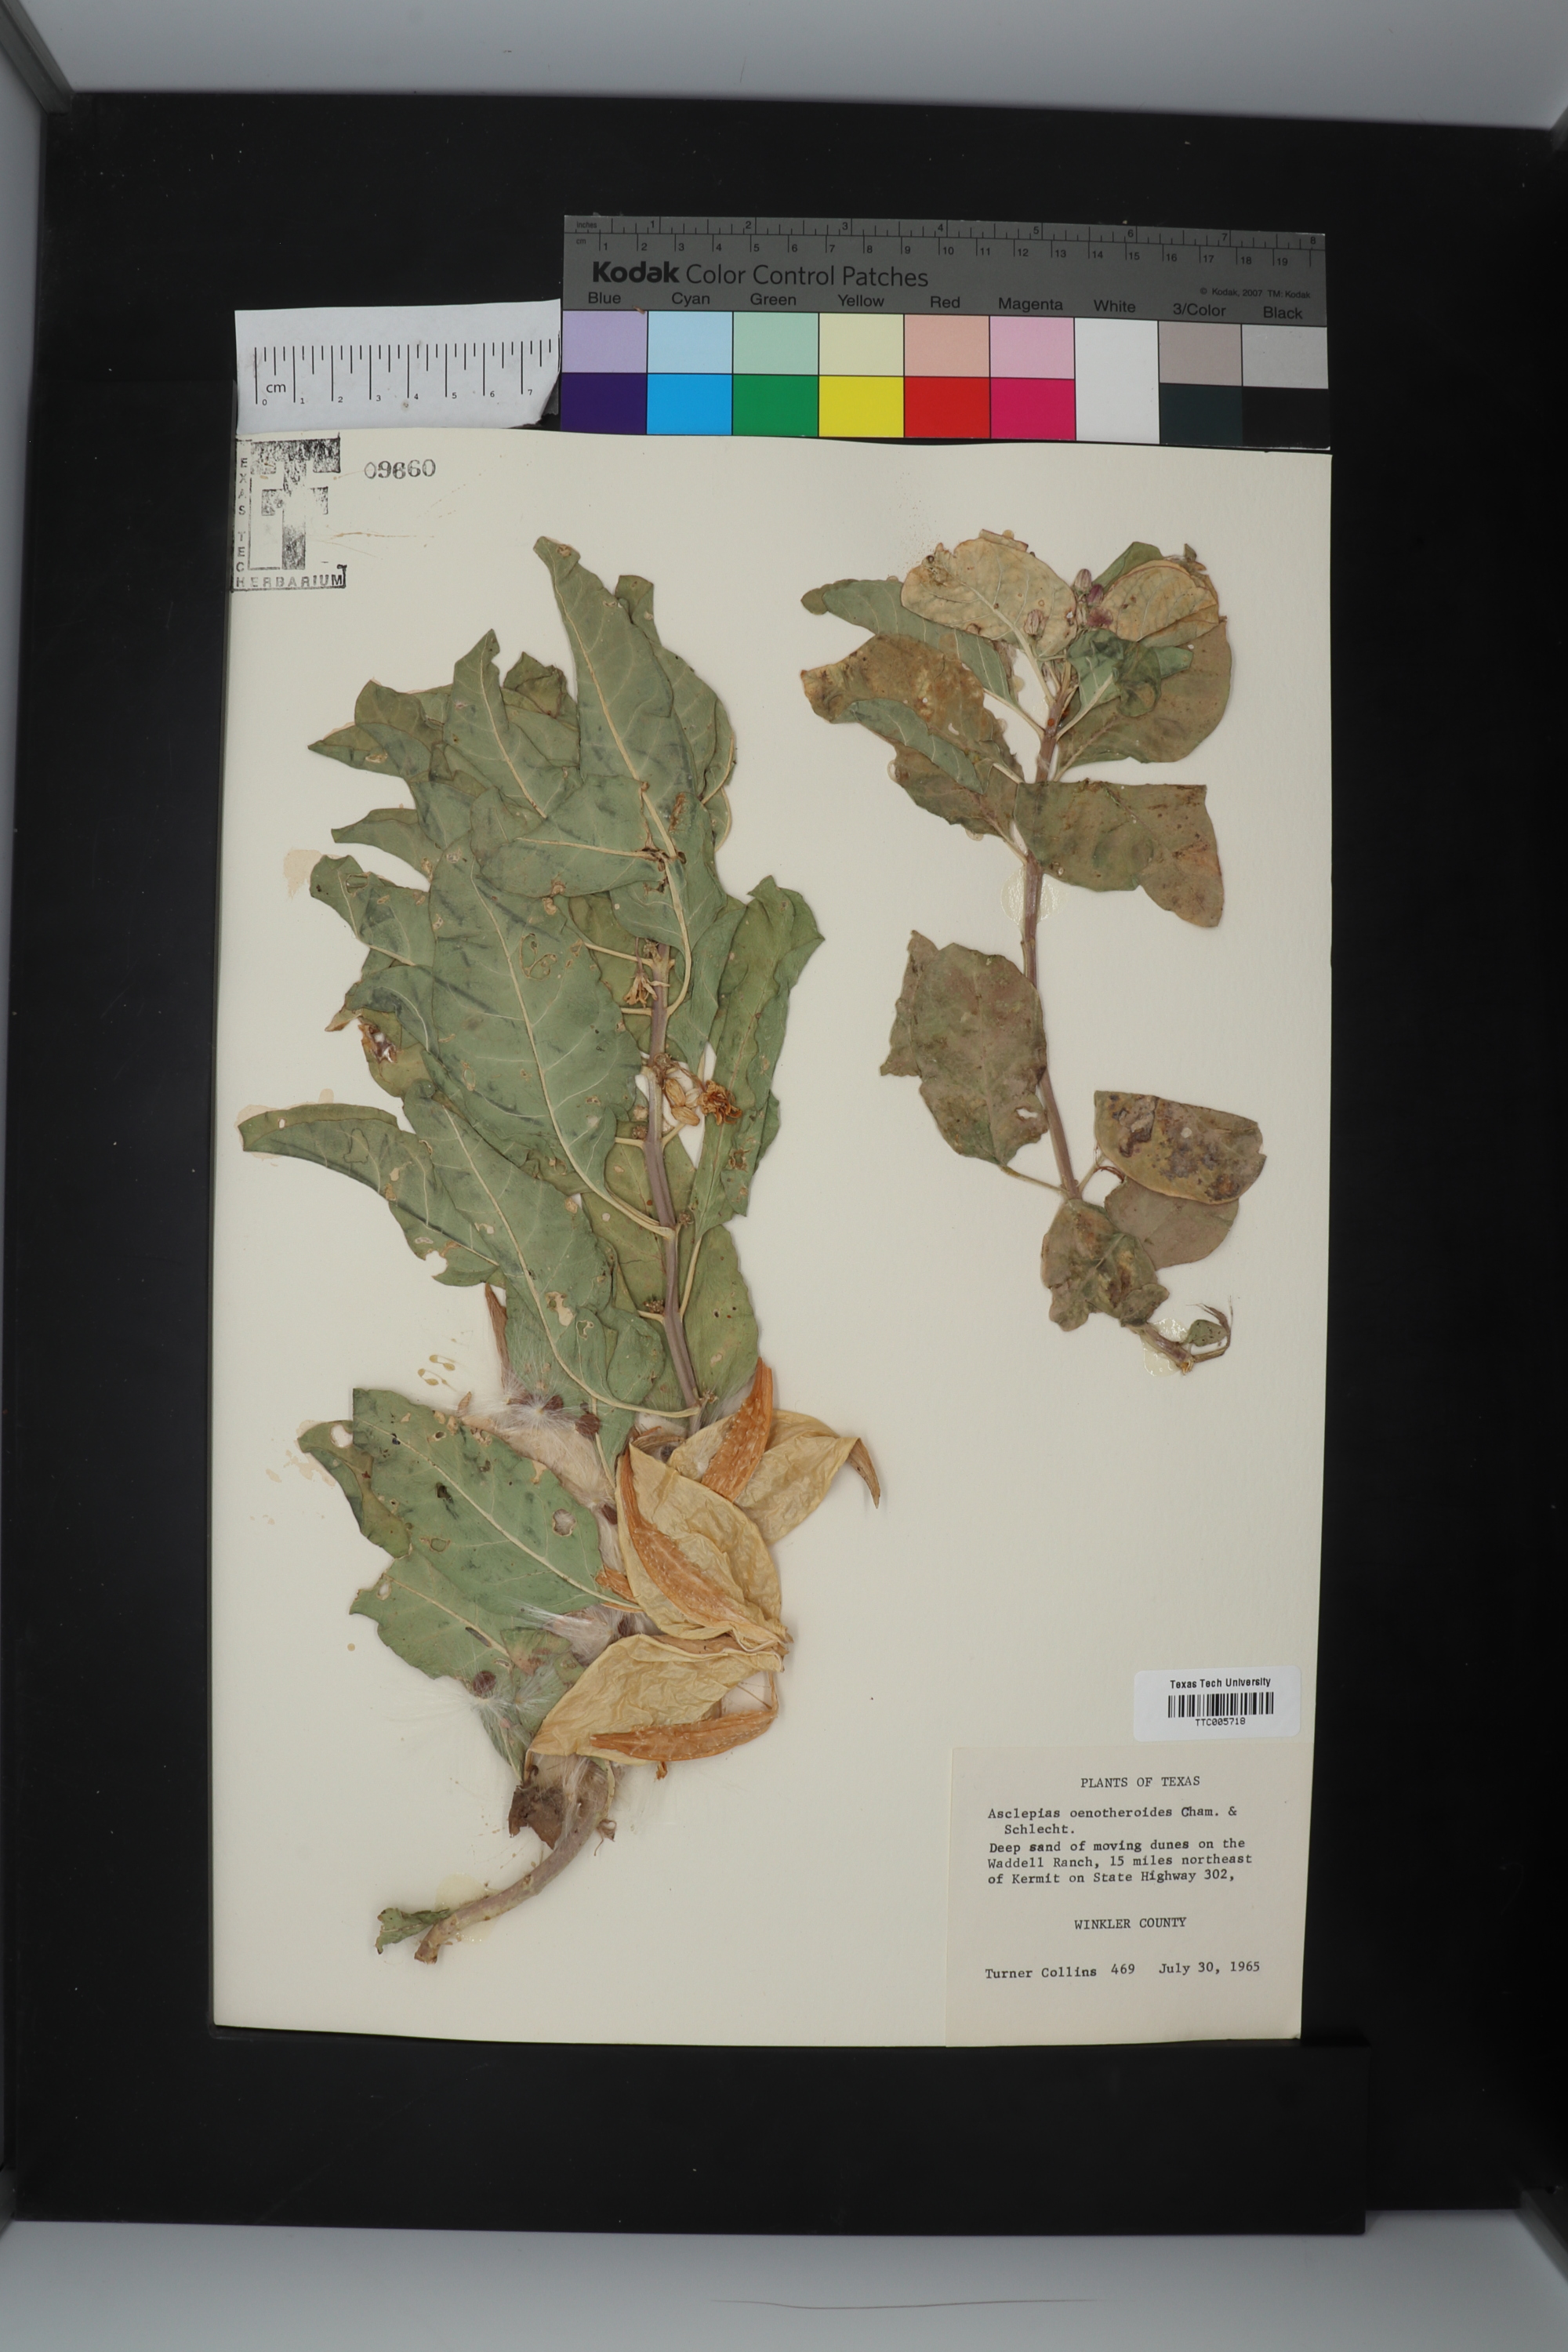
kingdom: Plantae
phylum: Tracheophyta
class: Magnoliopsida
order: Gentianales
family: Apocynaceae
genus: Asclepias
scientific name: Asclepias oenotheroides
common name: Zizotes milkweed
